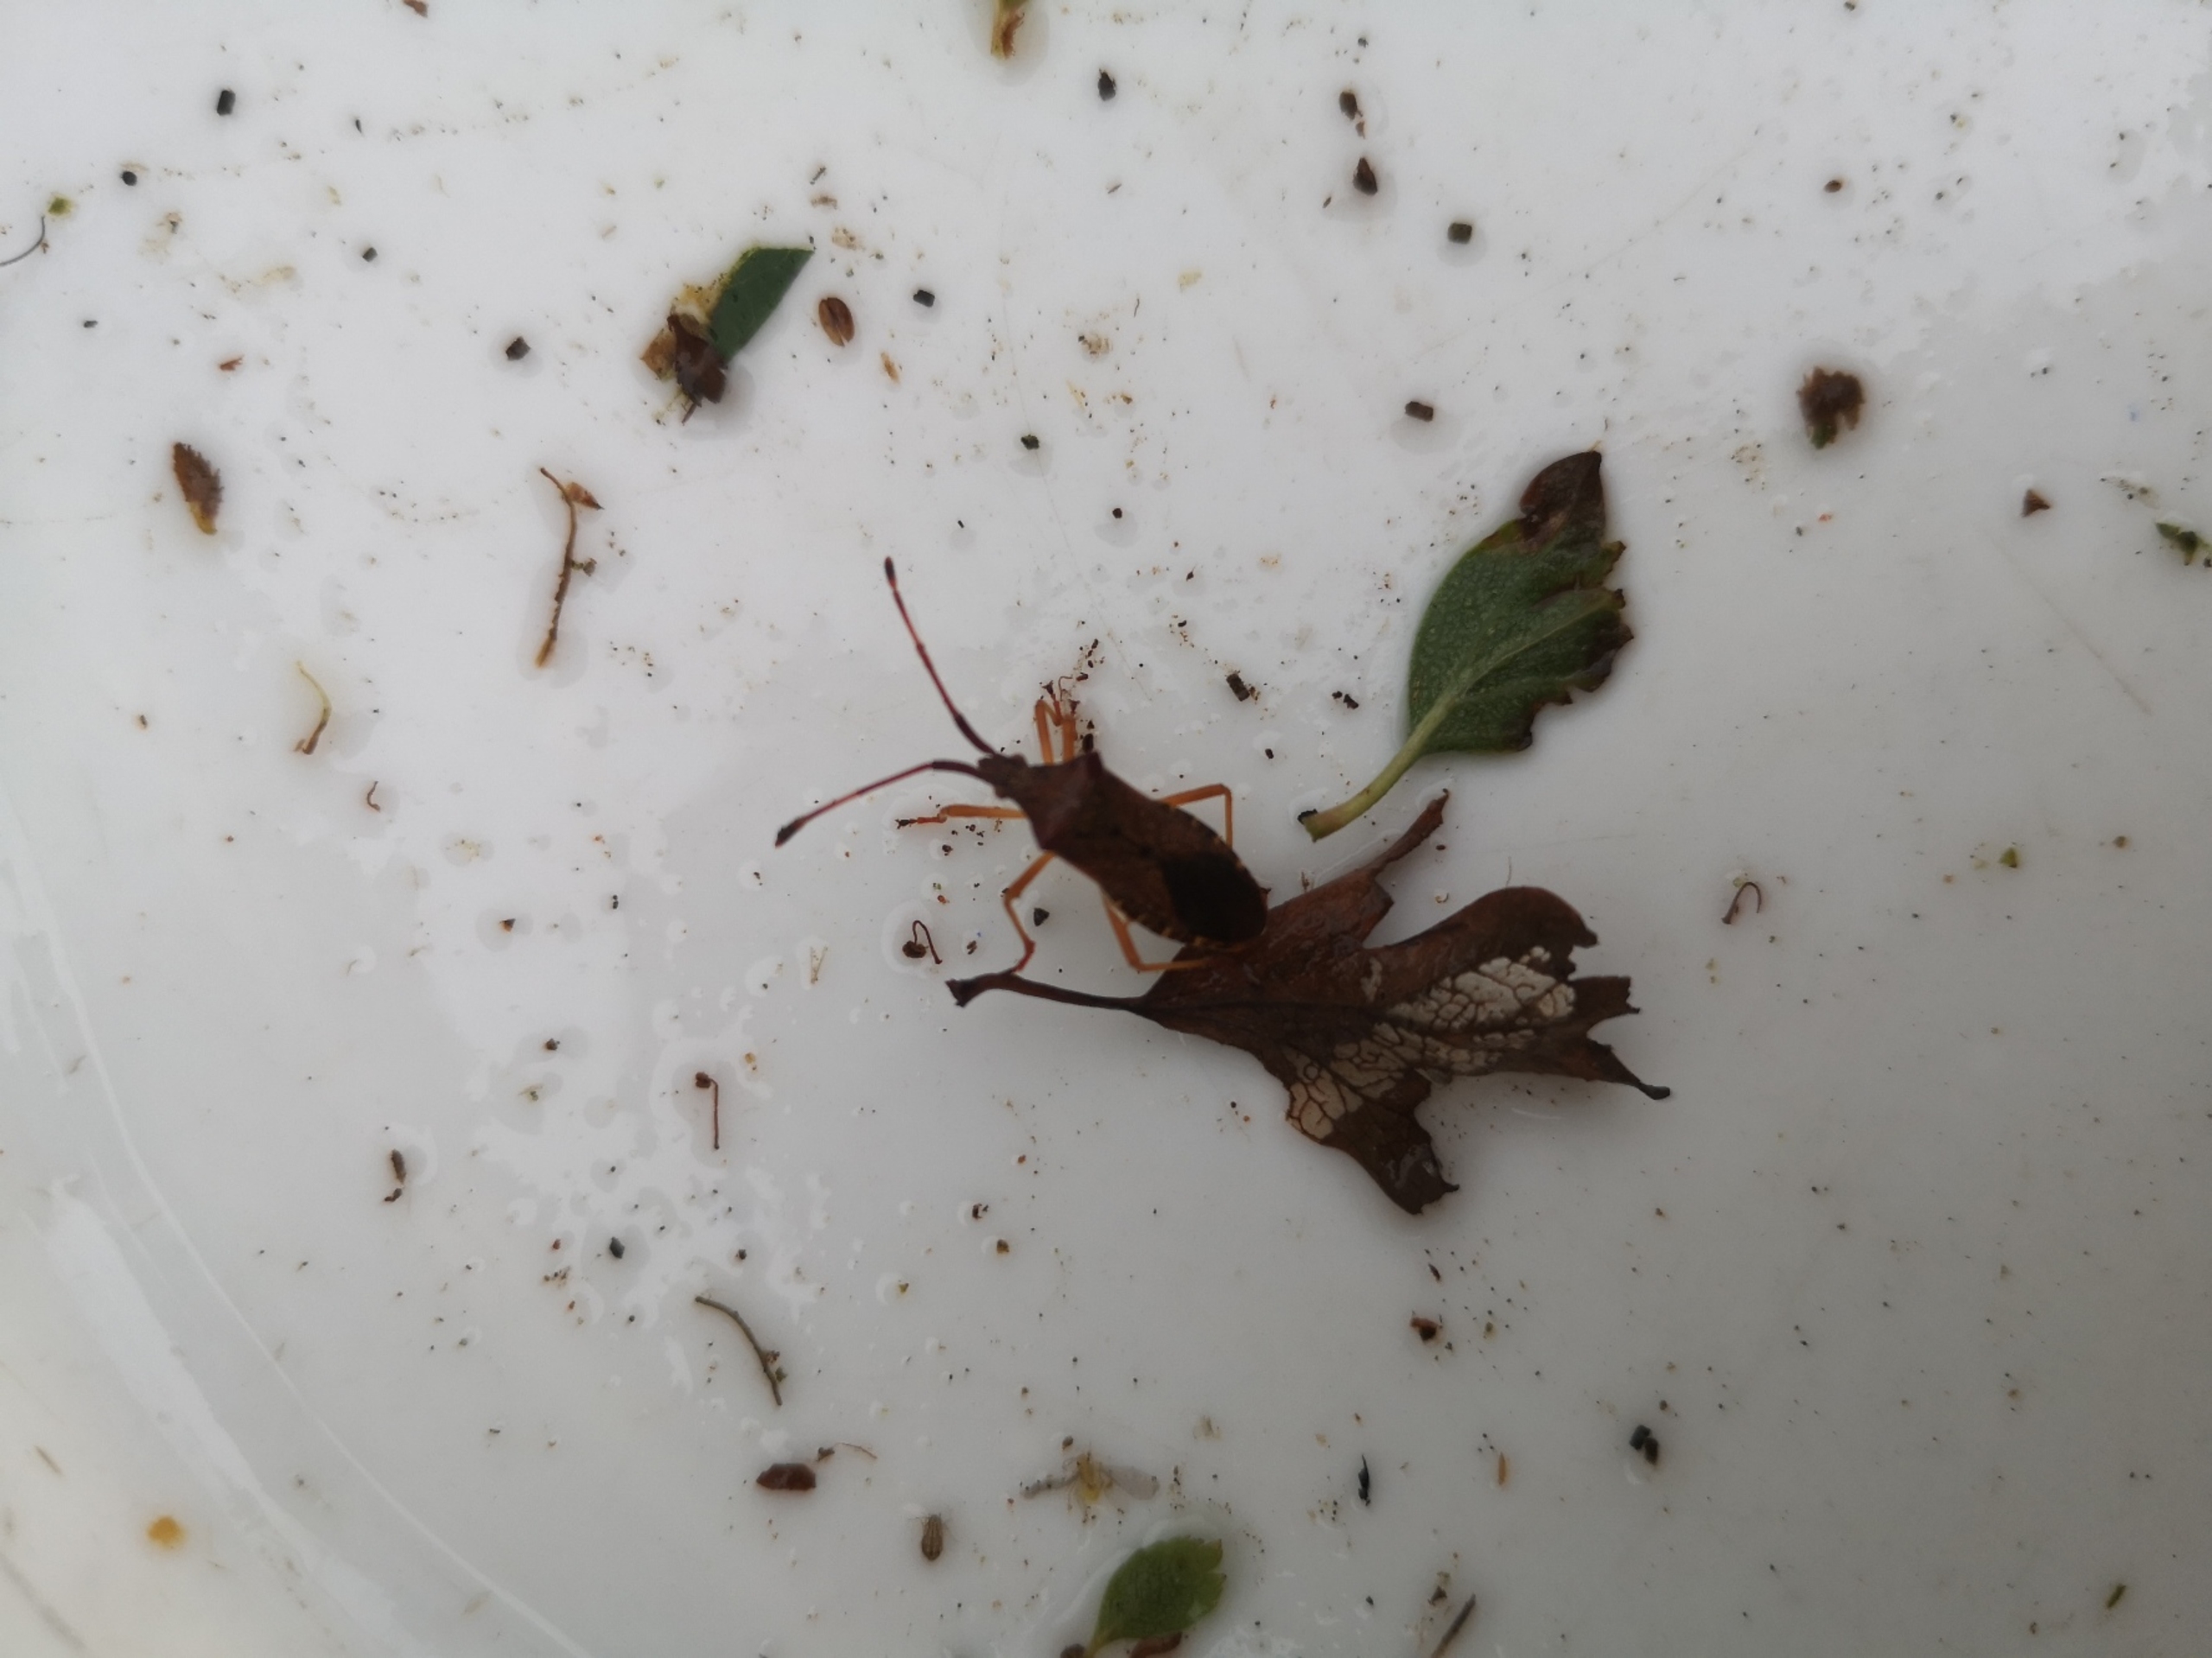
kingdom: Animalia
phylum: Arthropoda
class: Insecta
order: Hemiptera
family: Coreidae
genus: Gonocerus
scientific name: Gonocerus acuteangulatus
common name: Slåenrandtæge
